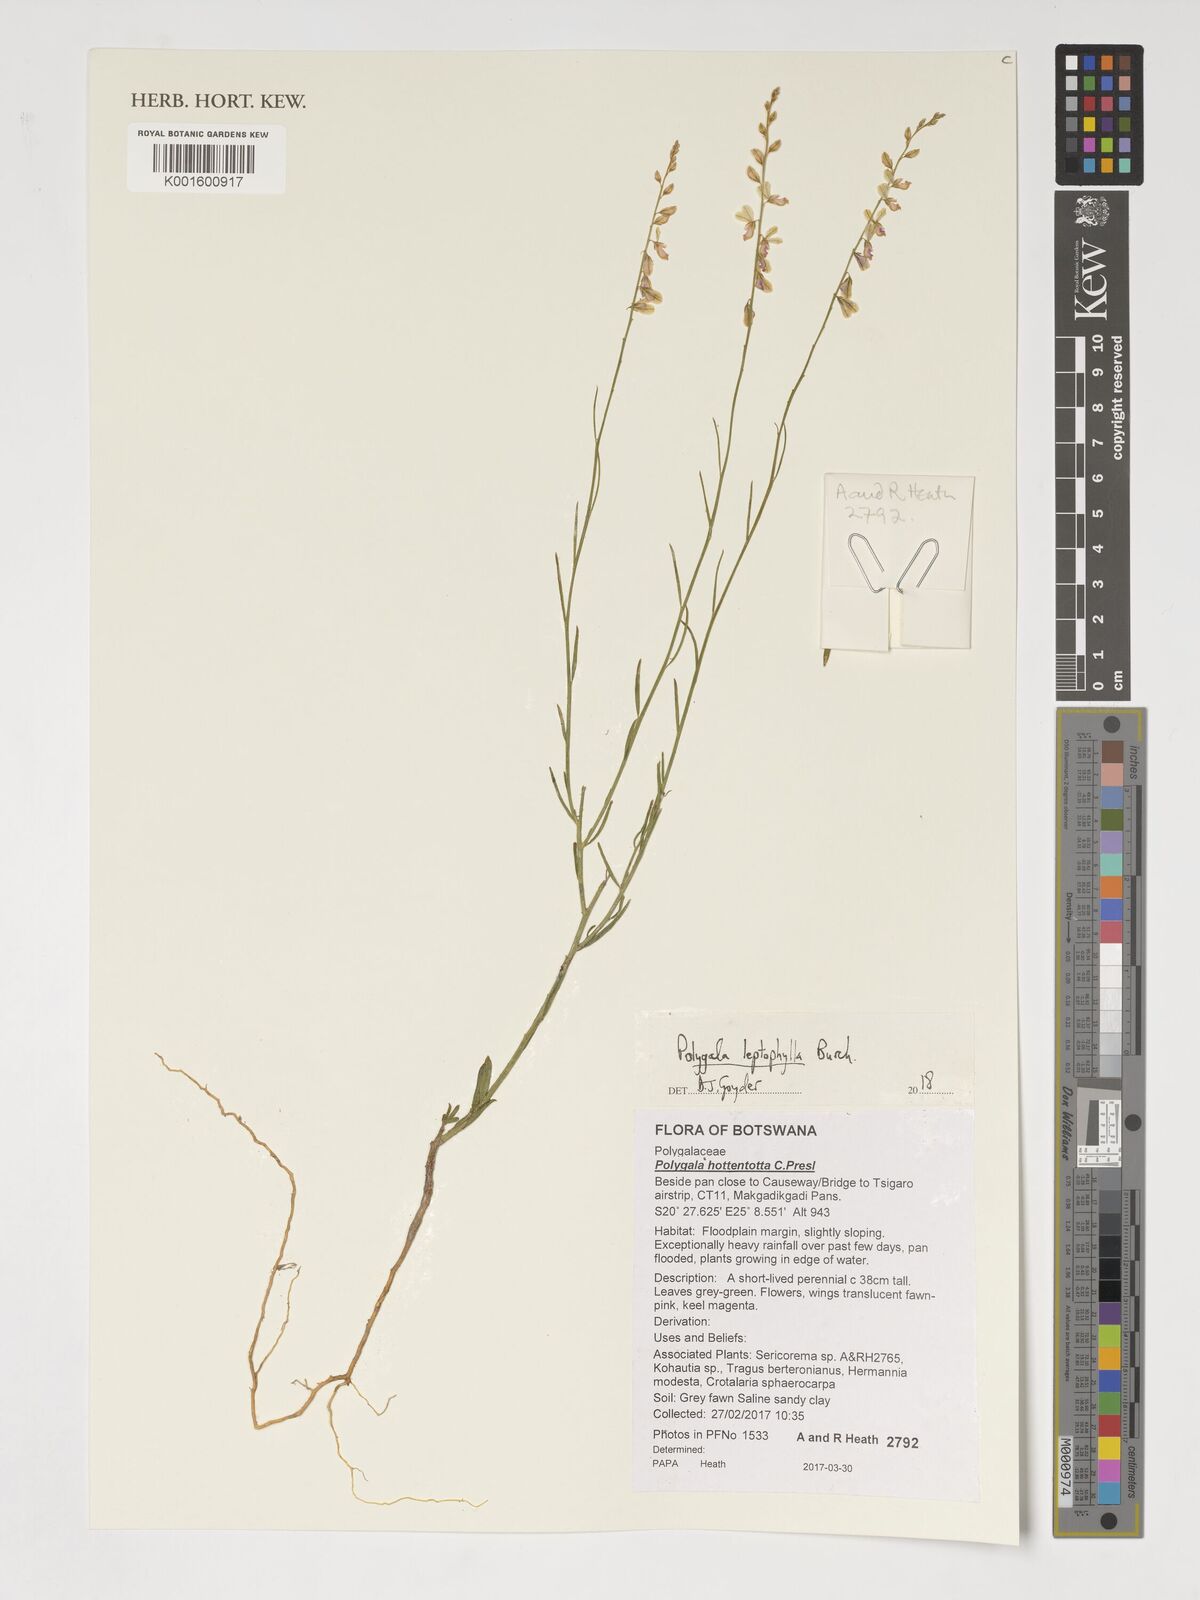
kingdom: Plantae
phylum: Tracheophyta
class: Magnoliopsida
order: Fabales
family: Polygalaceae
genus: Polygala
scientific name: Polygala leptophylla
